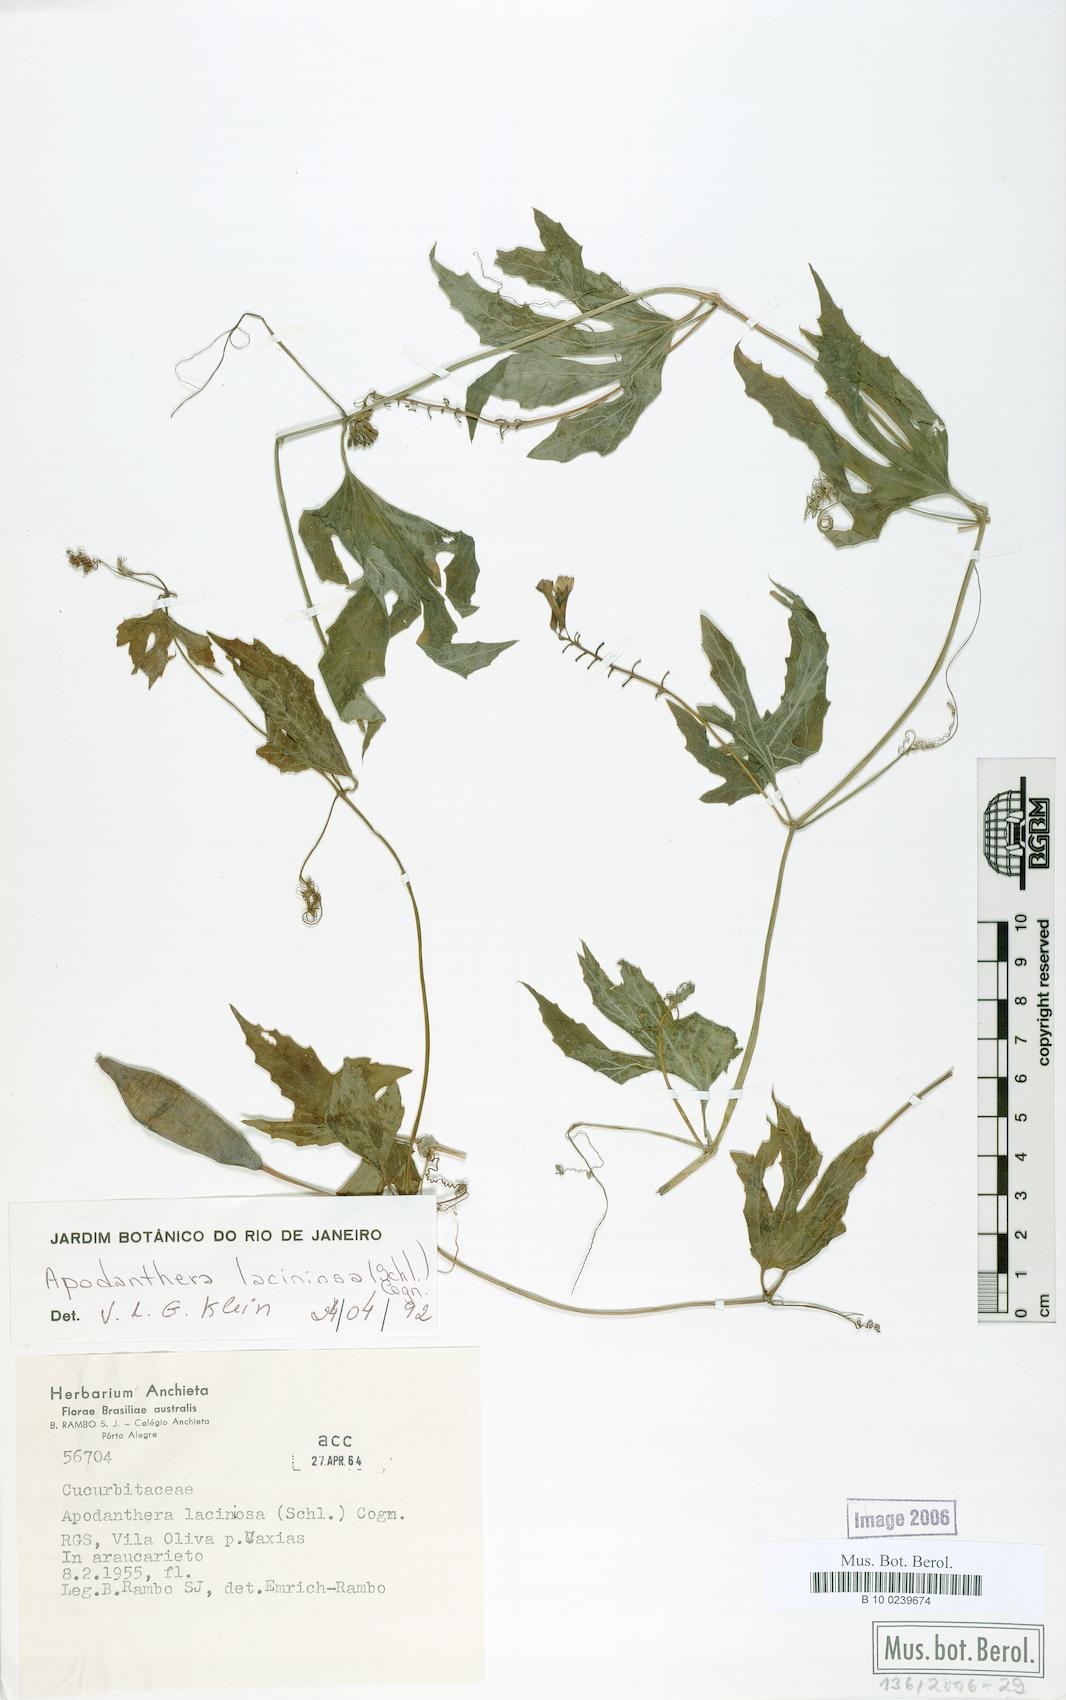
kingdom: Plantae
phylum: Tracheophyta
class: Magnoliopsida
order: Cucurbitales
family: Cucurbitaceae
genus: Apodanthera
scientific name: Apodanthera laciniosa
